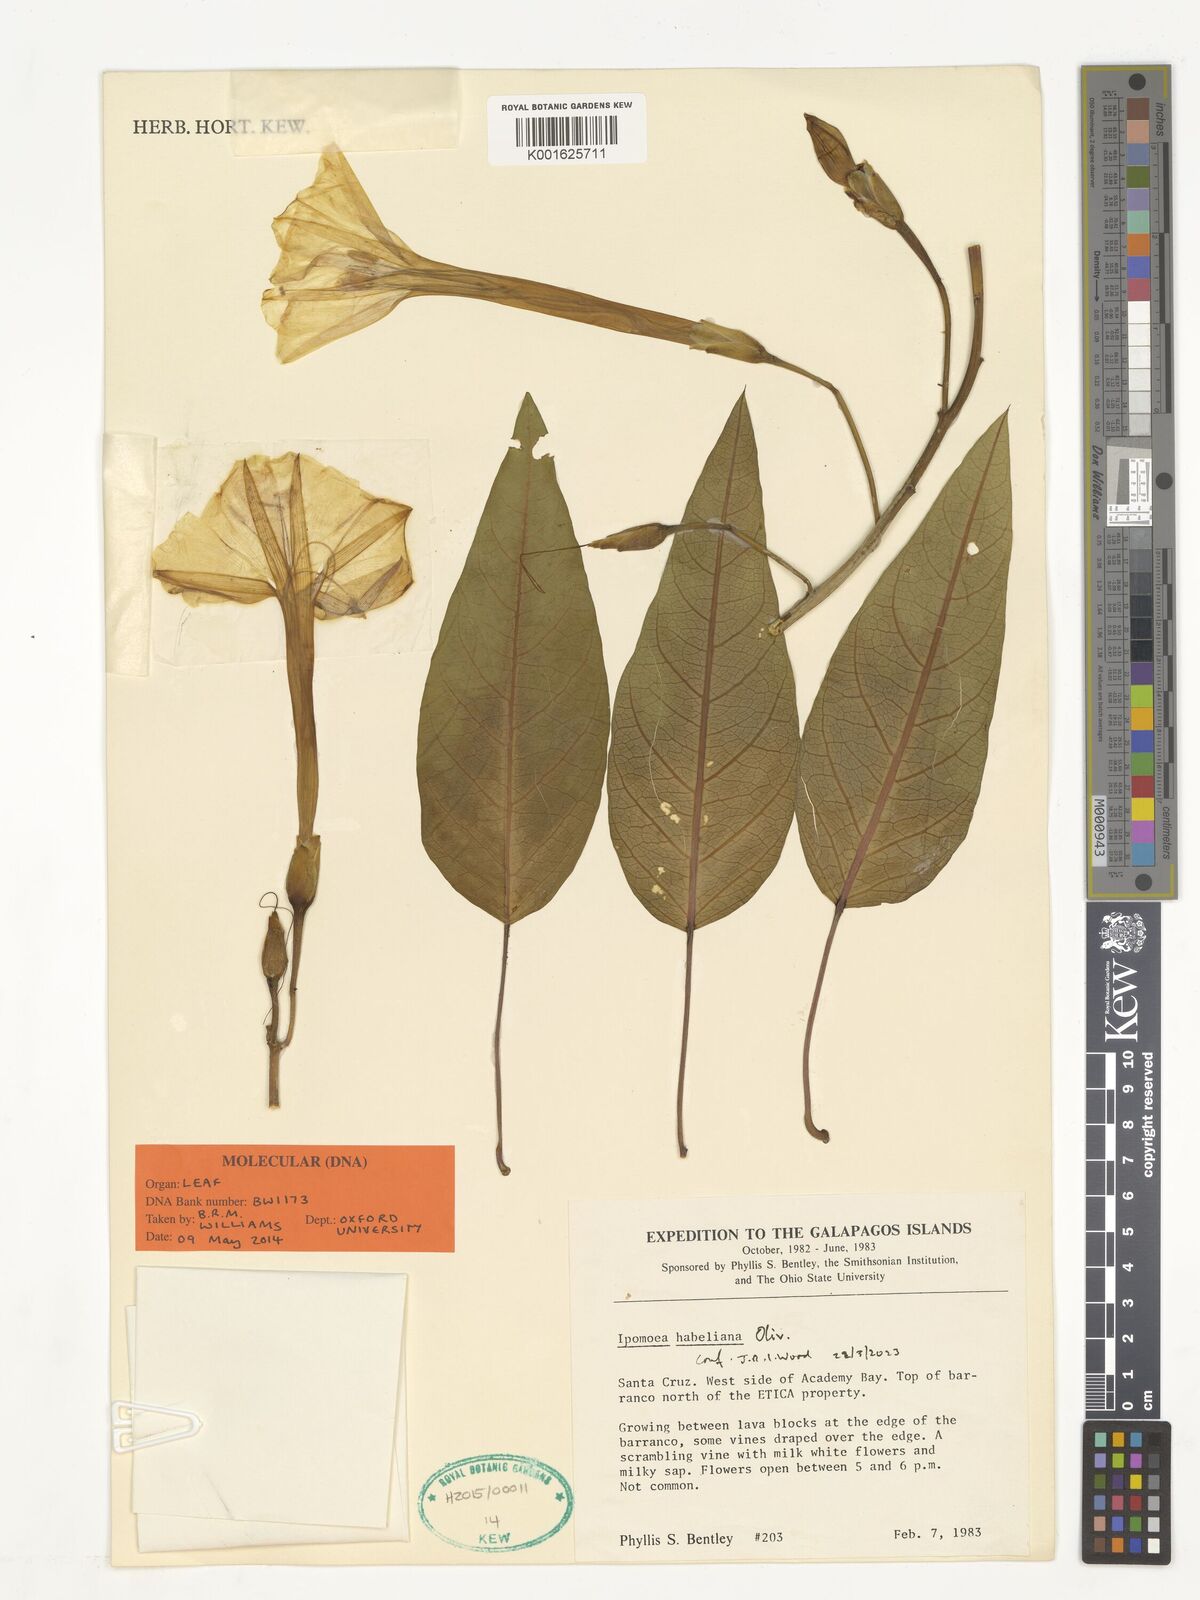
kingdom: Plantae
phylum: Tracheophyta
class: Magnoliopsida
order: Solanales
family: Convolvulaceae
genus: Ipomoea
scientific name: Ipomoea habeliana
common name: Lava morning glory
